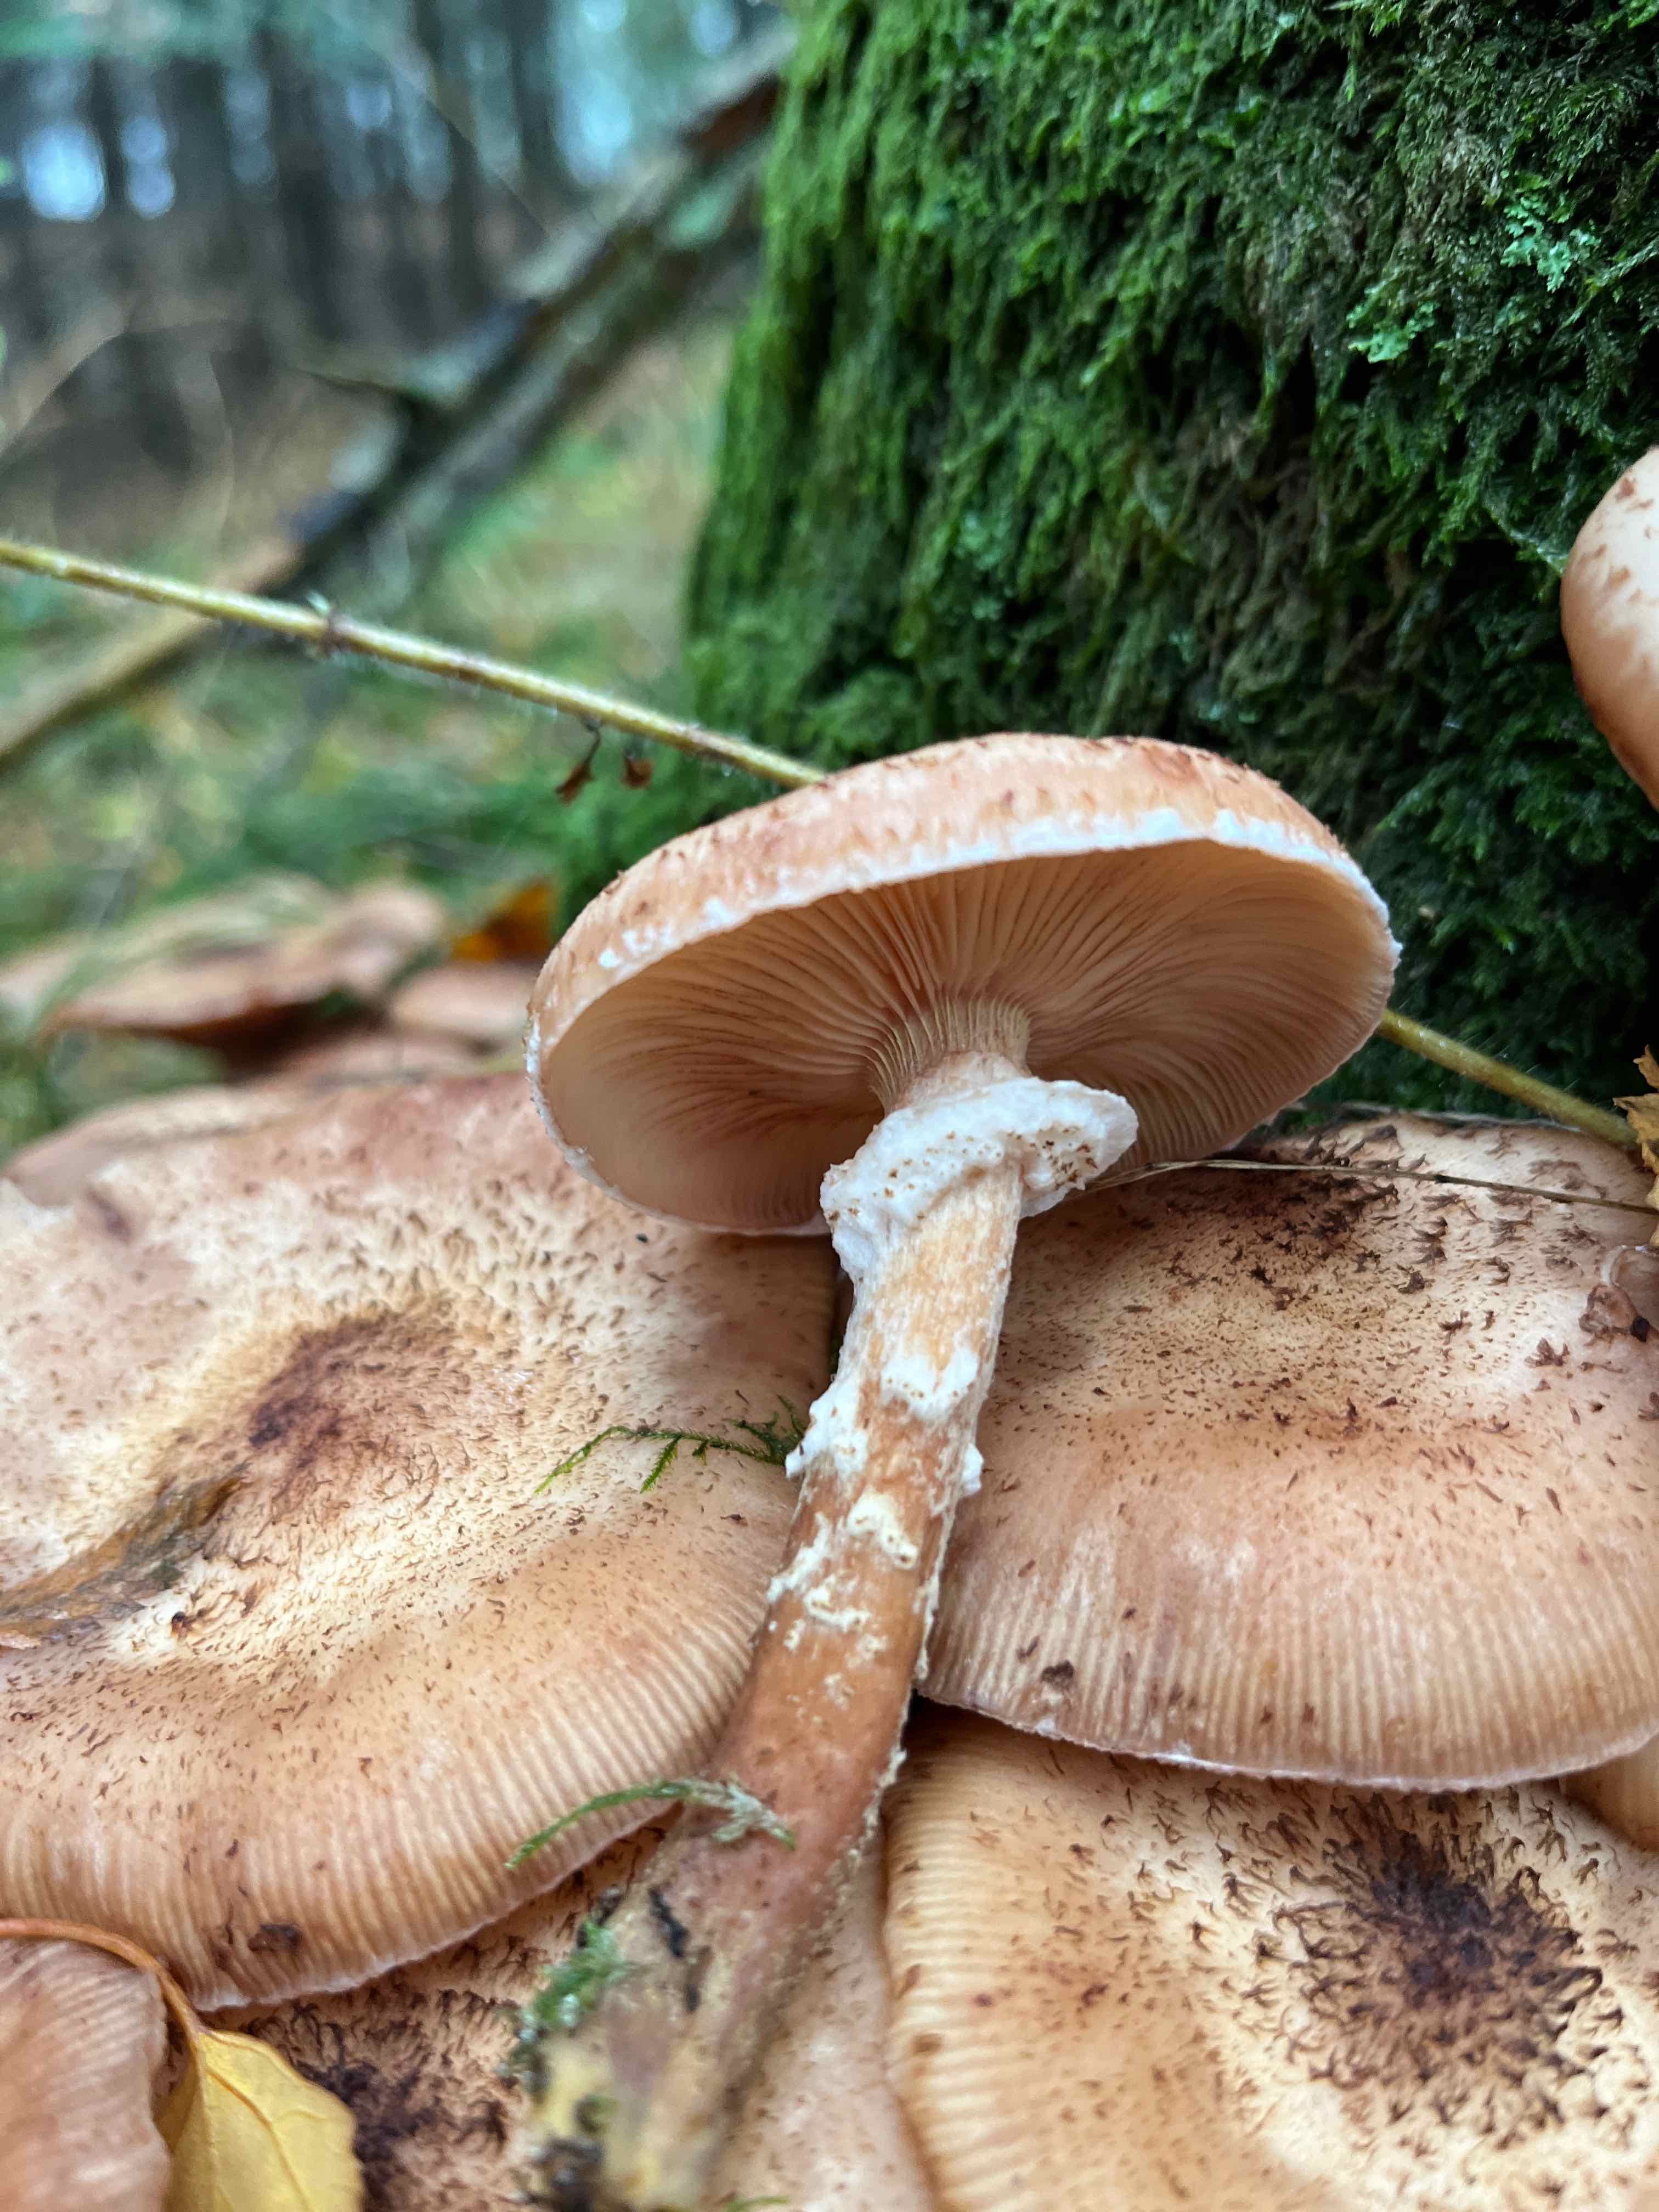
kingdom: Fungi
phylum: Basidiomycota
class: Agaricomycetes
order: Agaricales
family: Physalacriaceae
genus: Armillaria
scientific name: Armillaria ostoyae
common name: mørk honningsvamp
